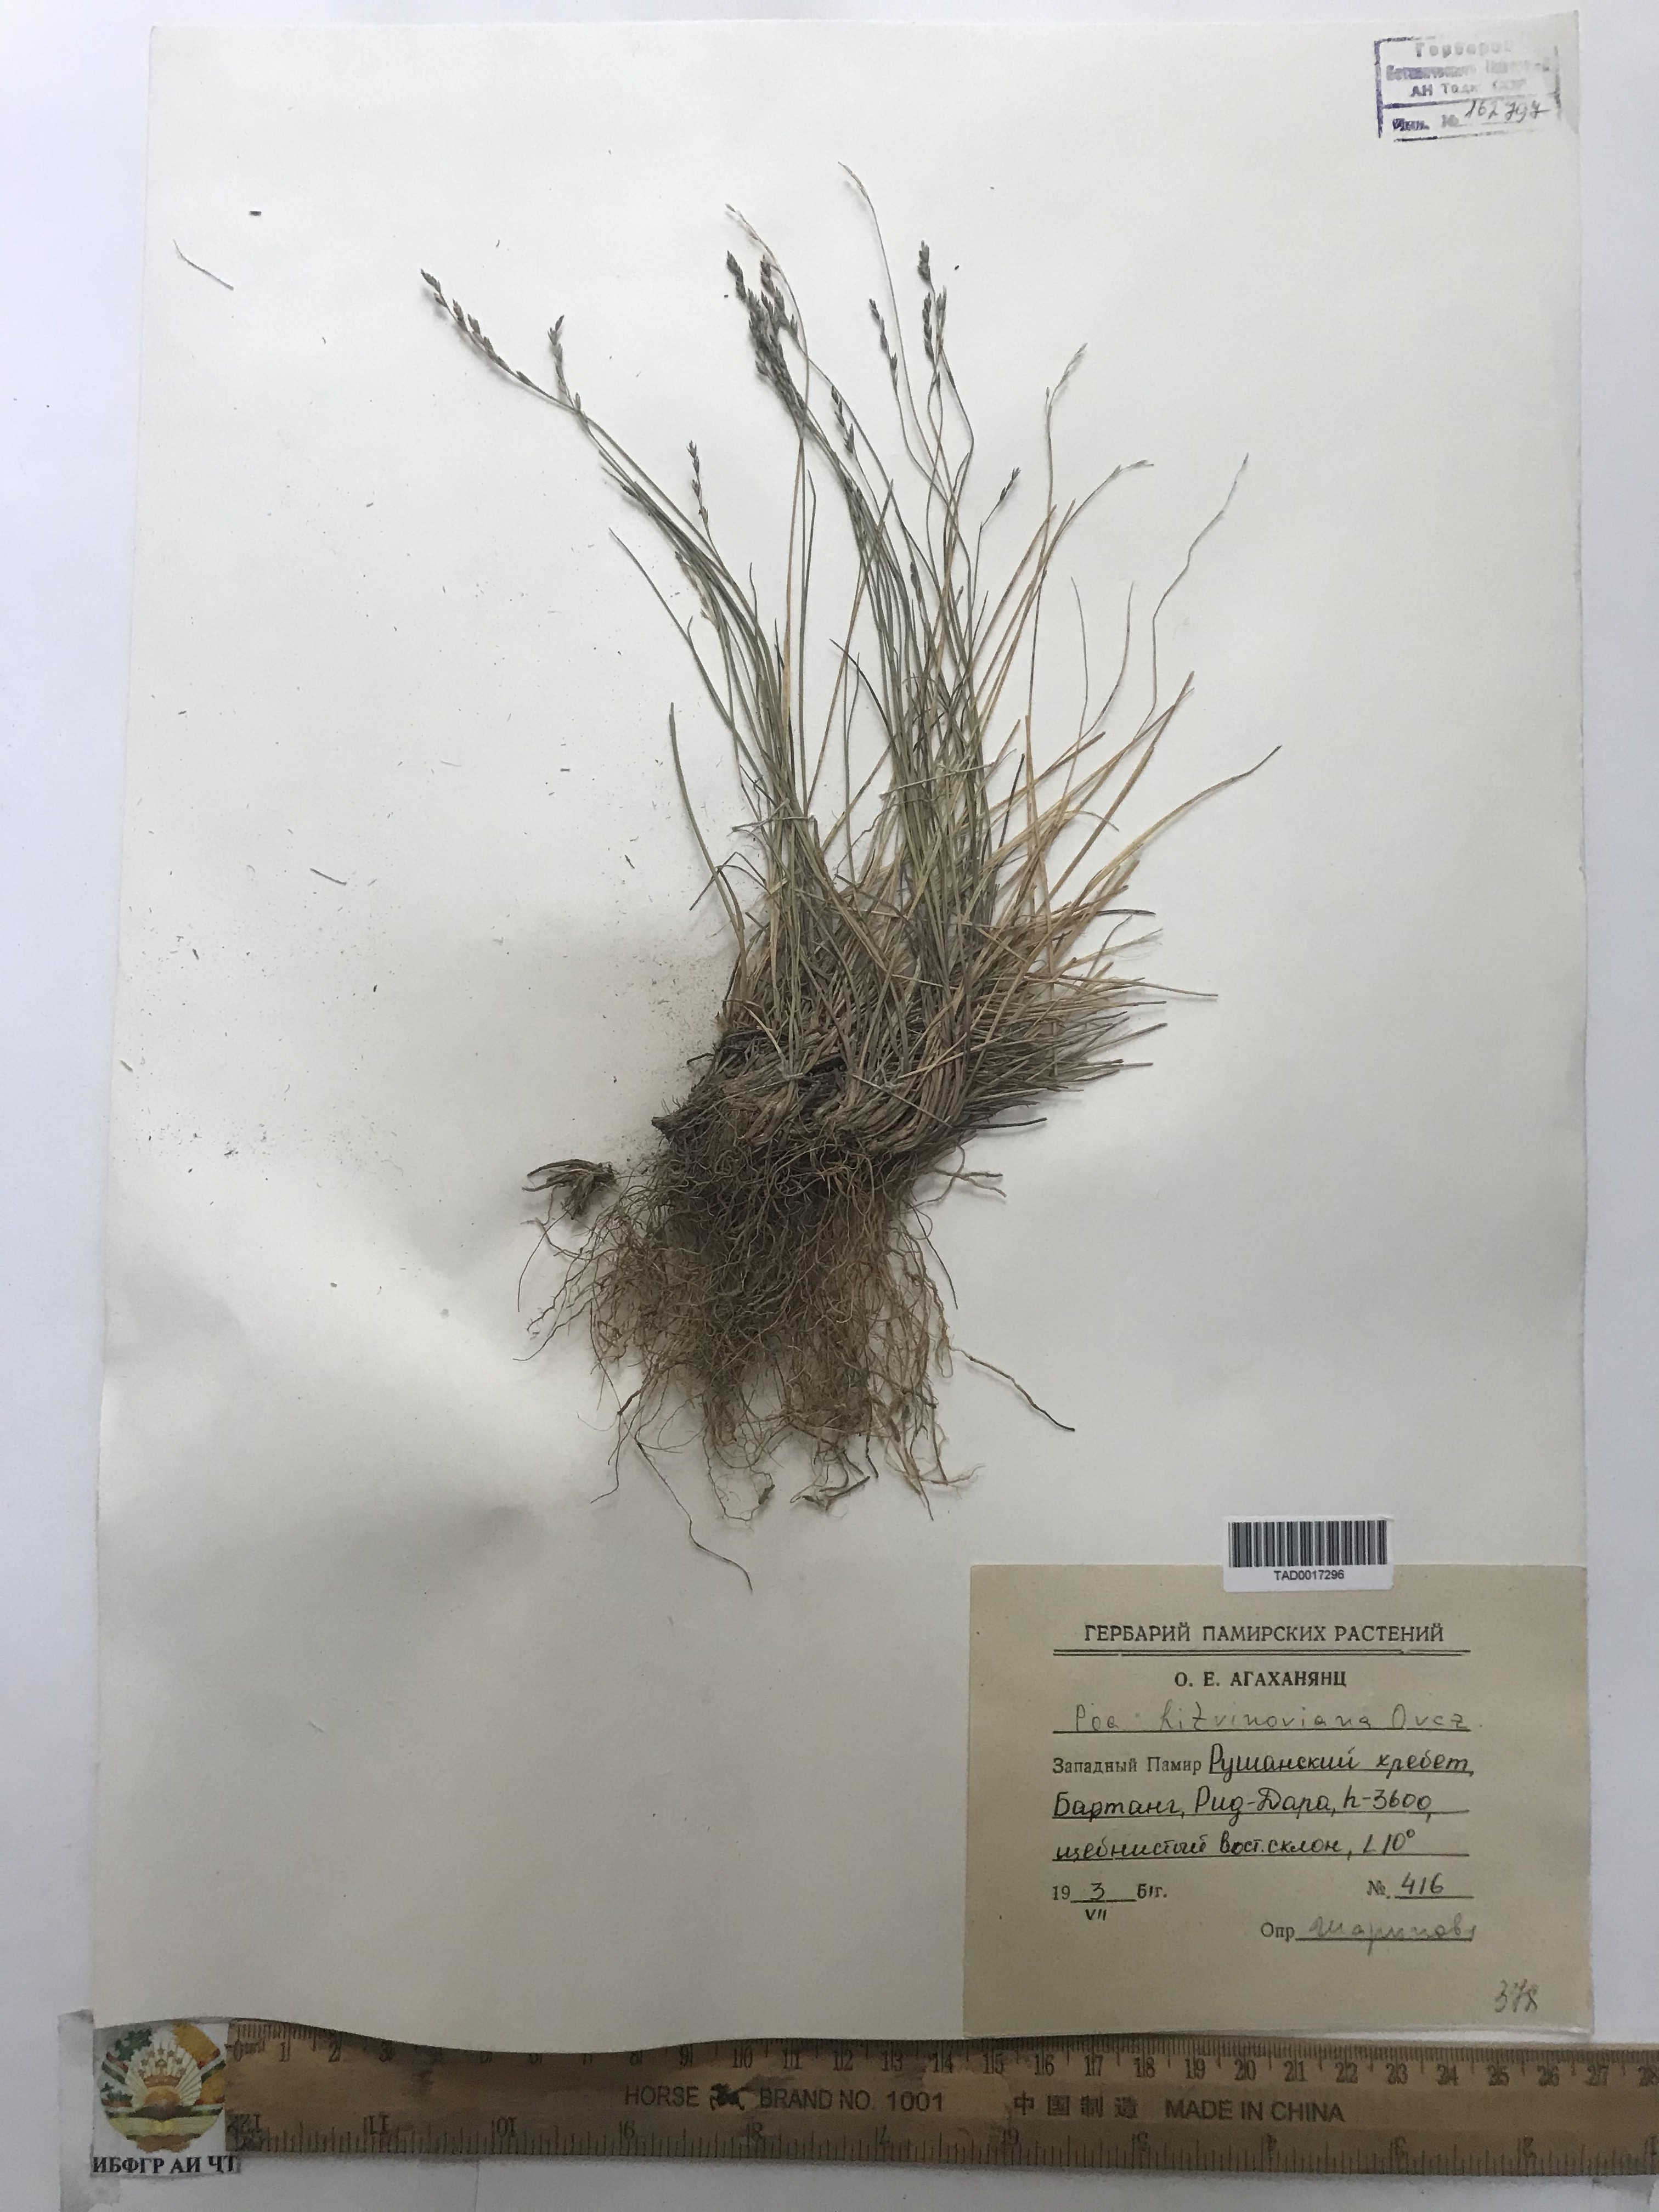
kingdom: Plantae
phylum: Tracheophyta
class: Liliopsida
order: Poales
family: Poaceae
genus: Poa
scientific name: Poa glauca
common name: Glaucous bluegrass
